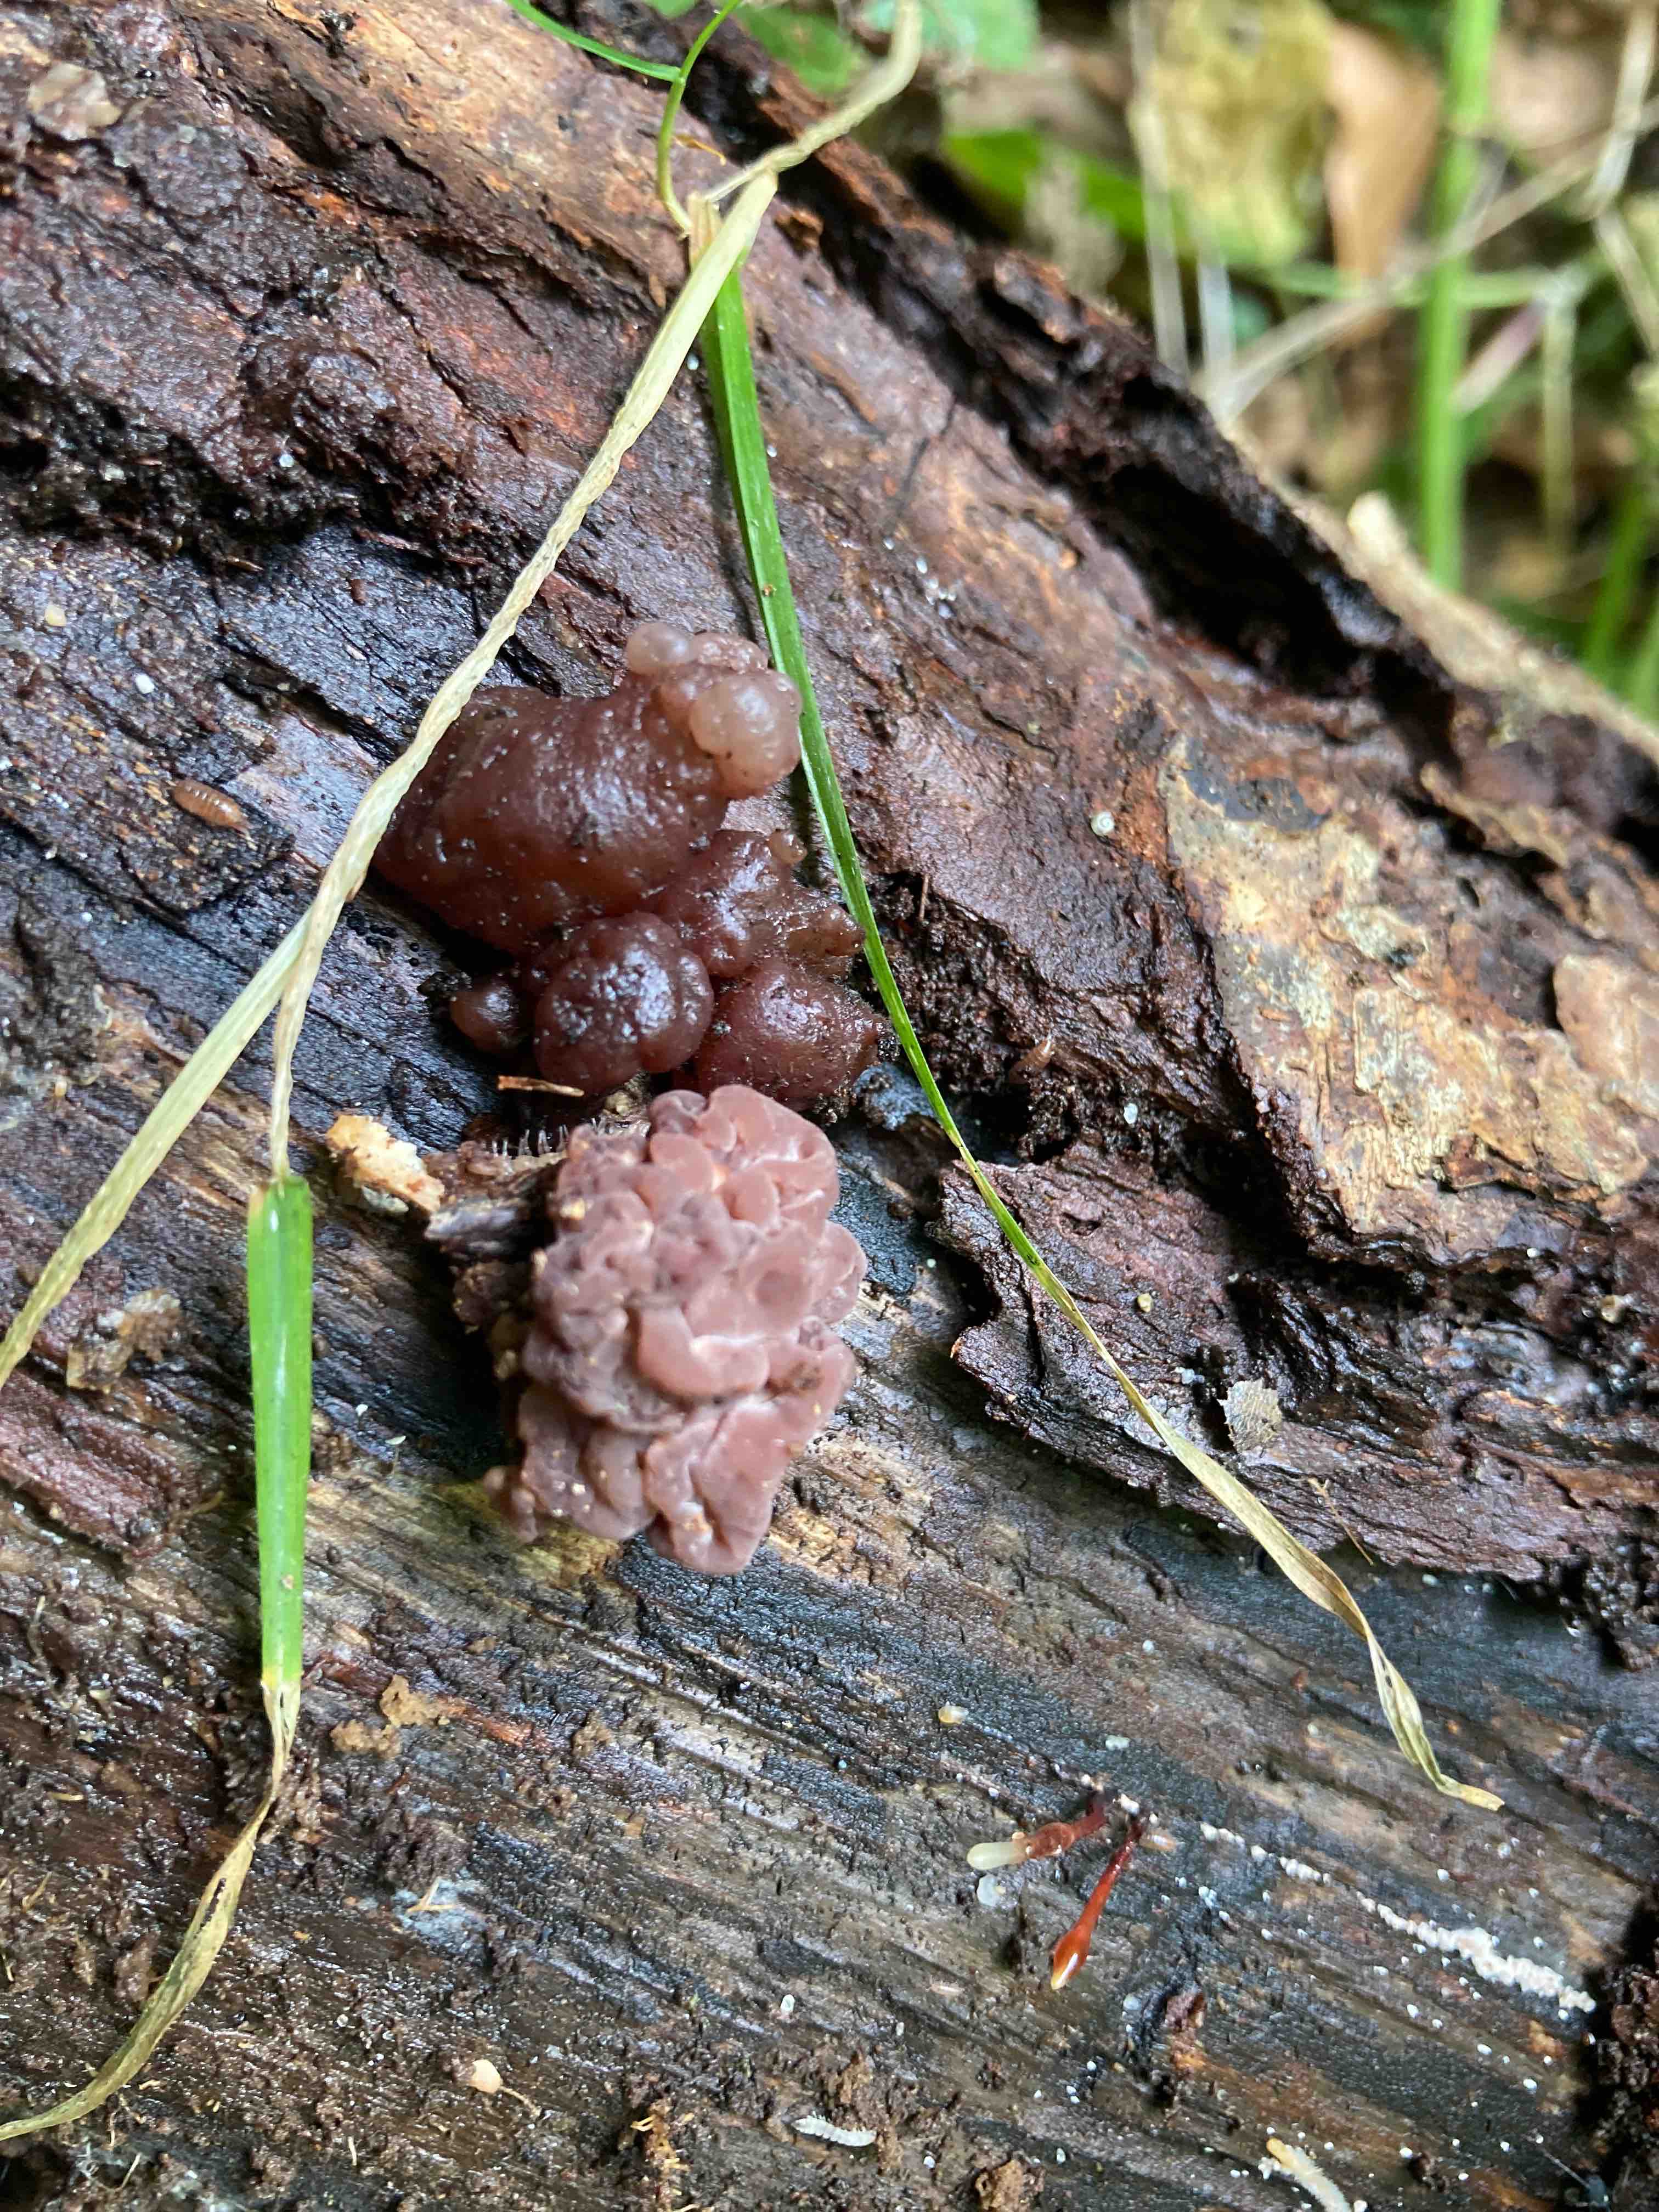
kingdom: Fungi
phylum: Ascomycota
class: Leotiomycetes
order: Helotiales
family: Gelatinodiscaceae
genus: Ascotremella
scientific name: Ascotremella faginea
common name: hjerne-bævreskive
